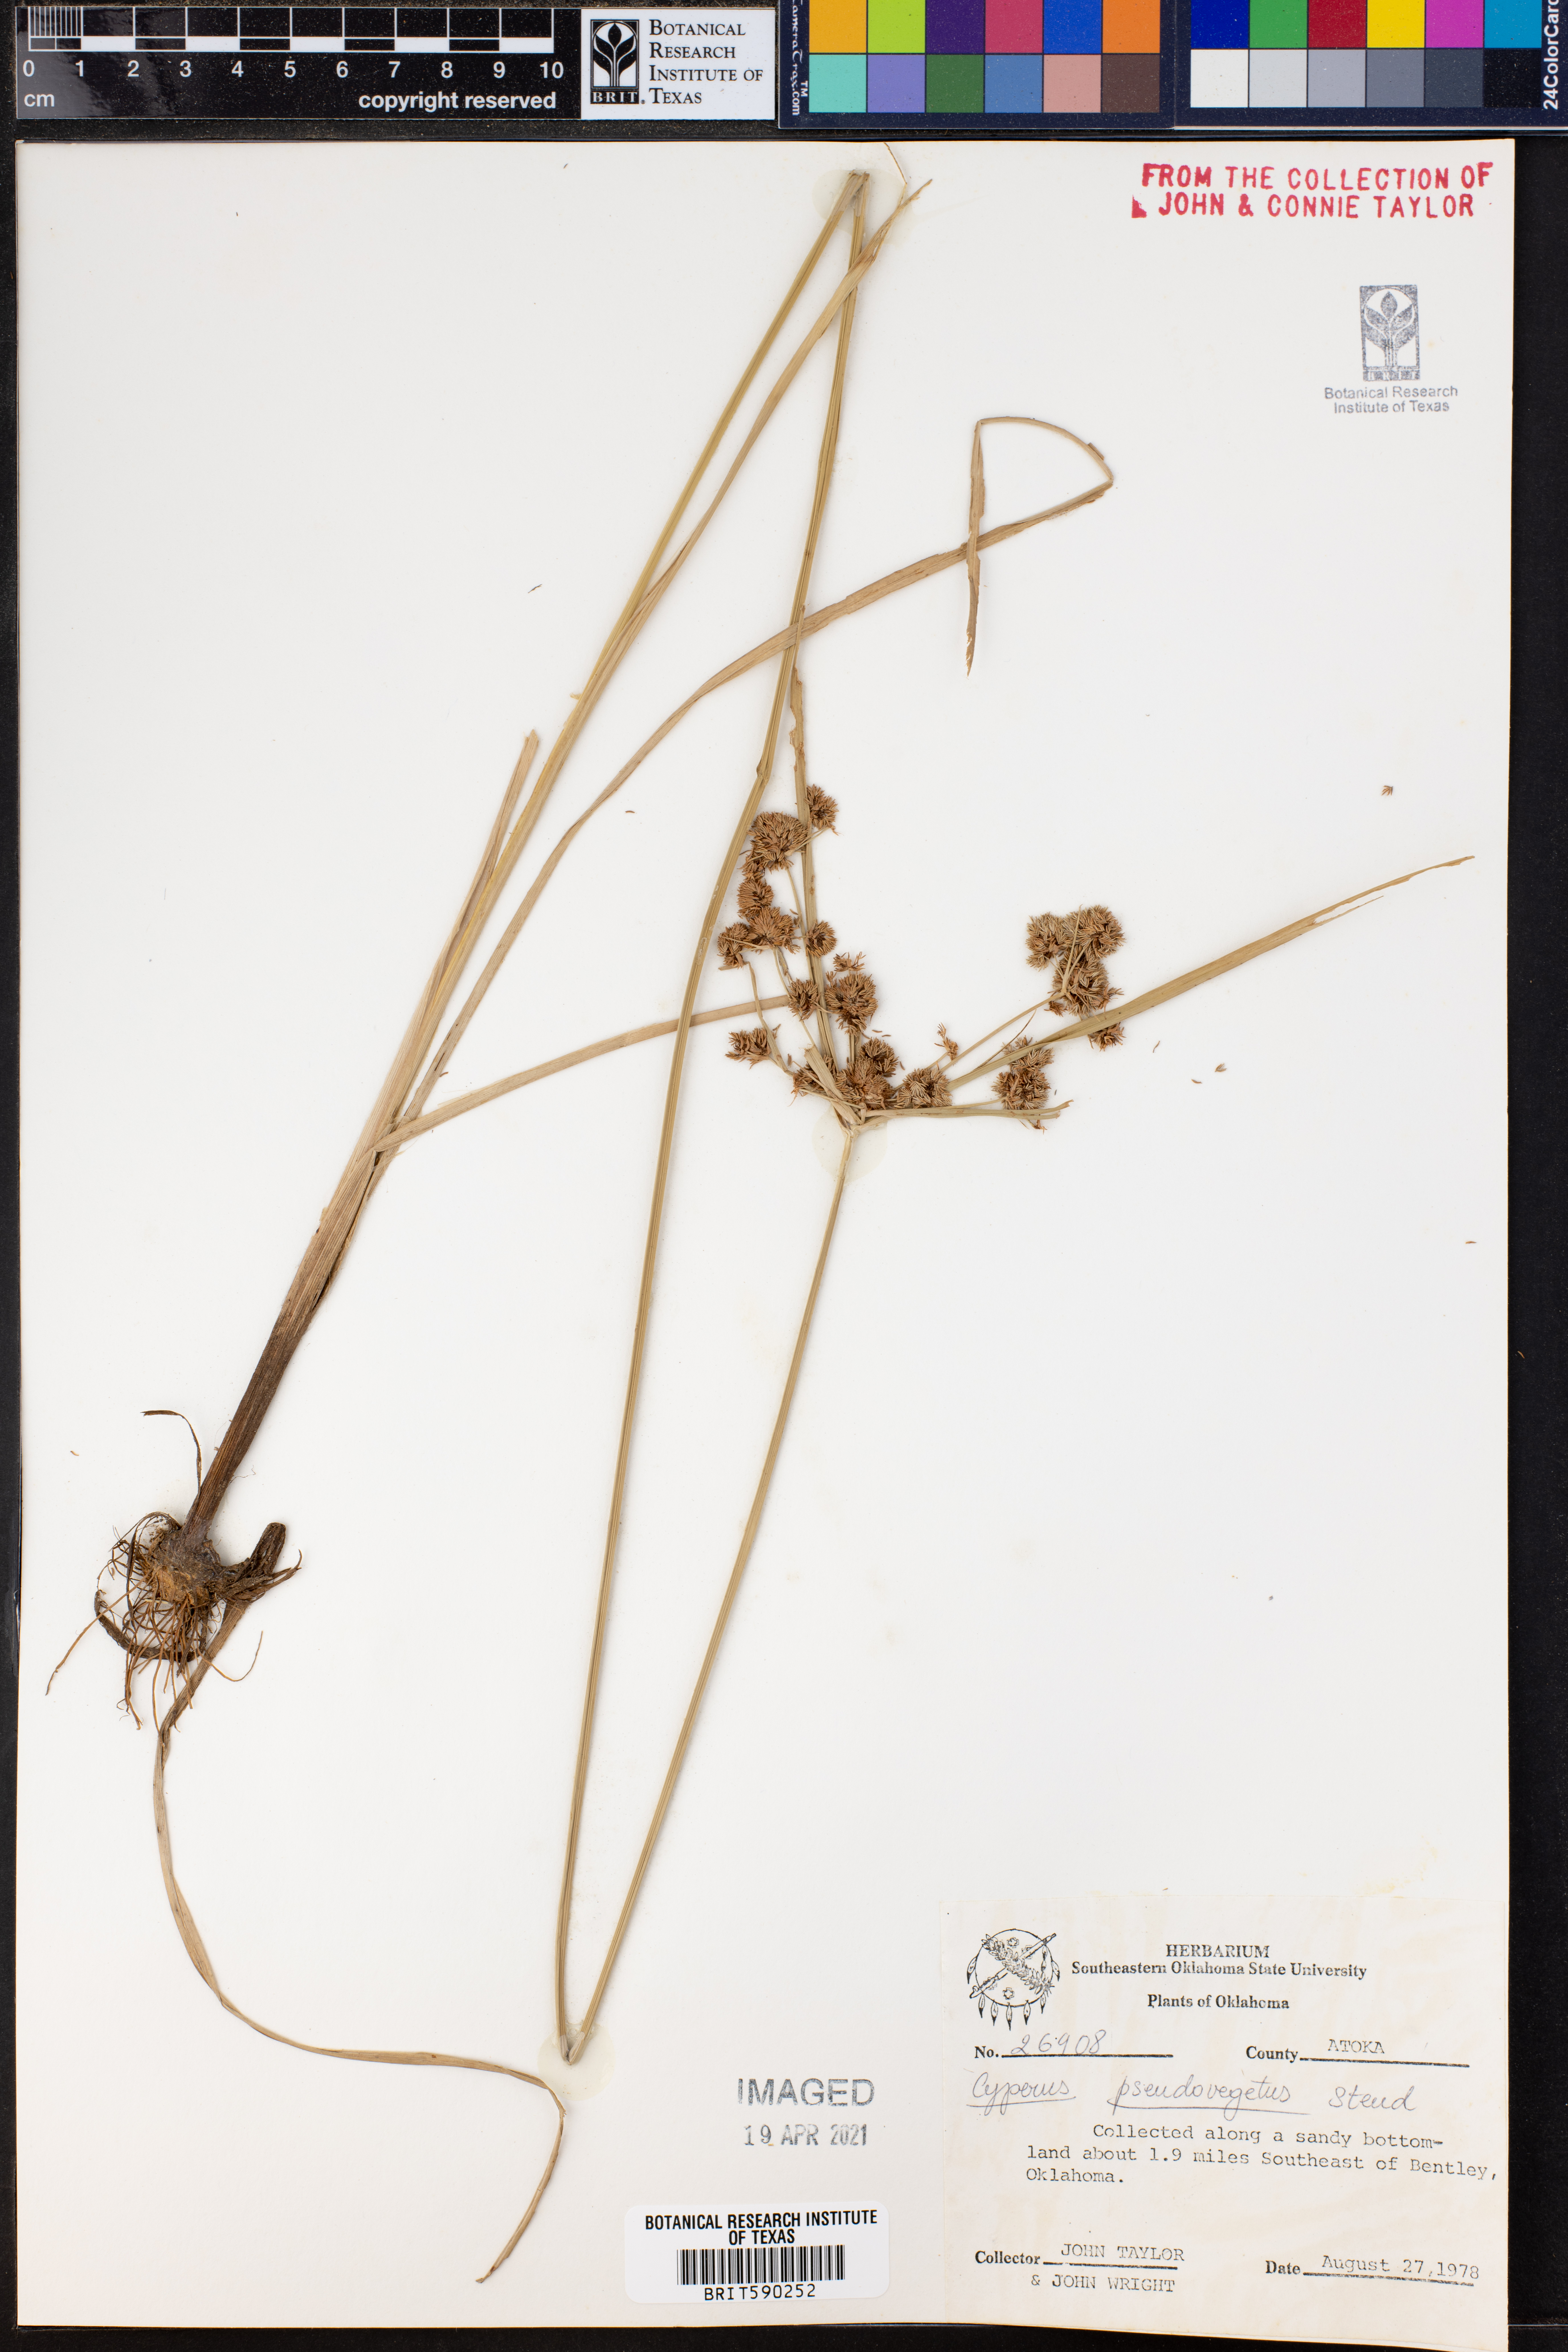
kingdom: Plantae
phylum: Tracheophyta
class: Liliopsida
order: Poales
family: Cyperaceae
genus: Cyperus
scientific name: Cyperus pseudovegetus
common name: Marsh flat sedge
